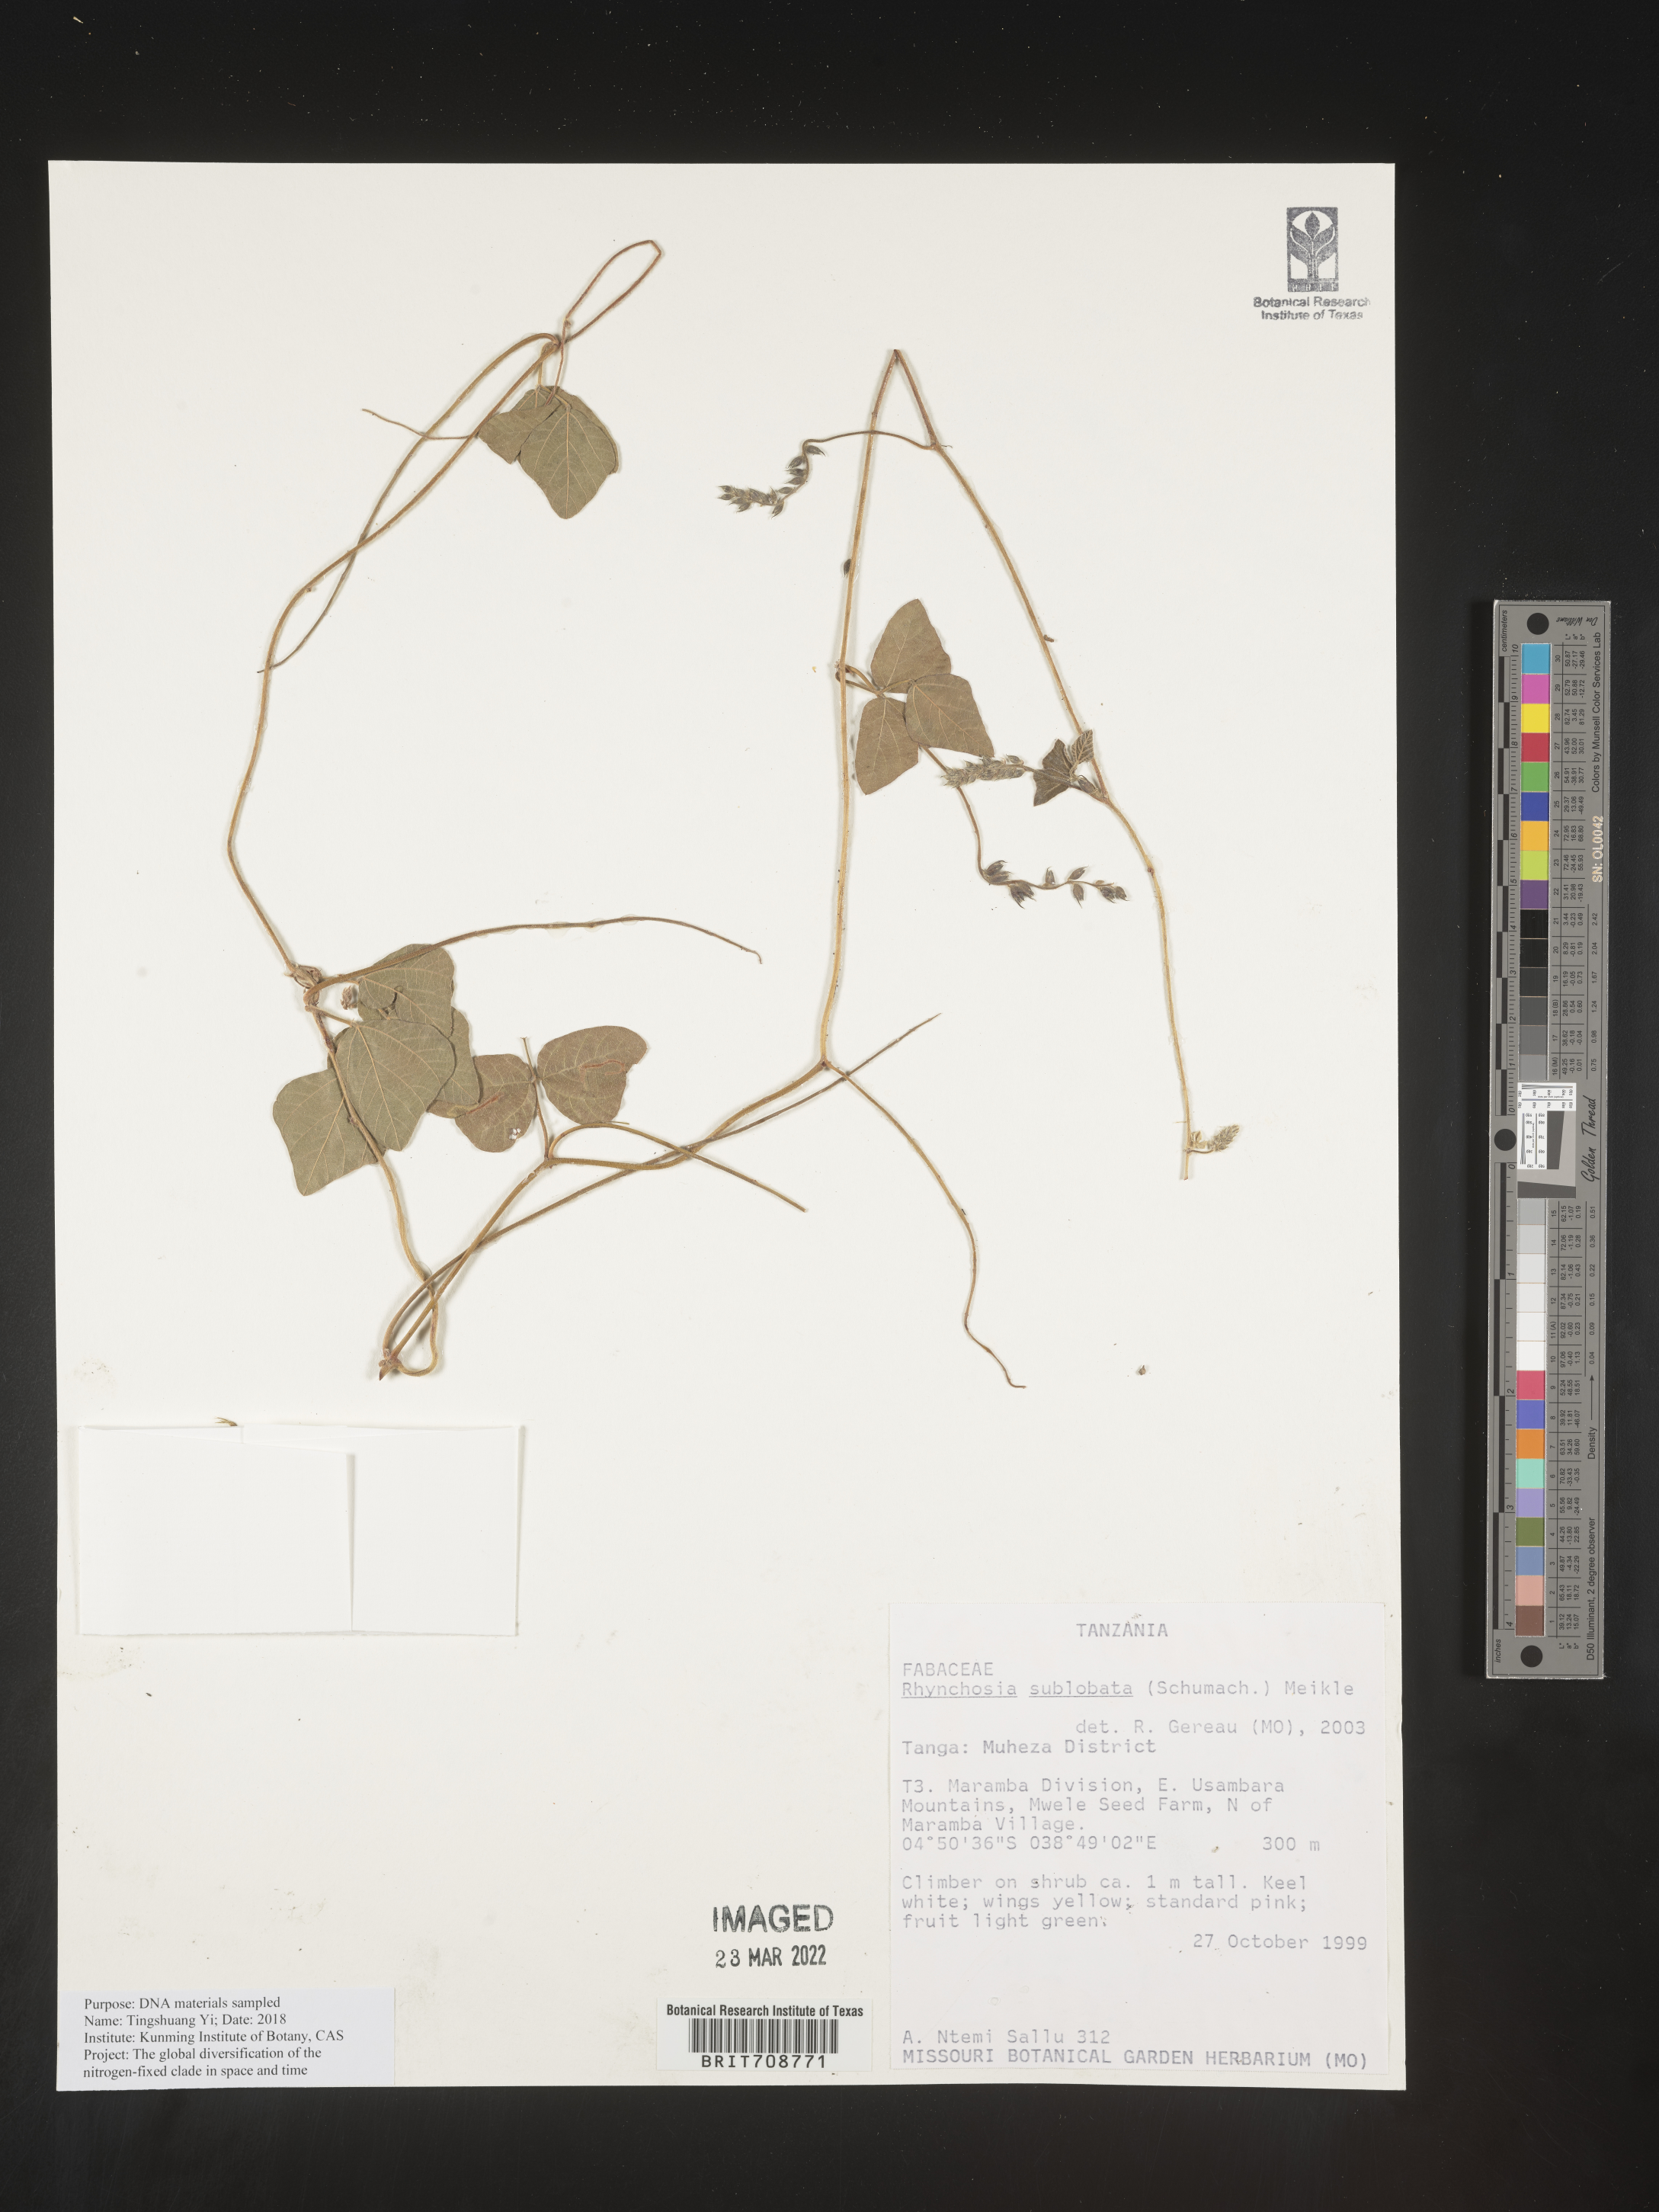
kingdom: Plantae
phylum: Tracheophyta
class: Magnoliopsida
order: Fabales
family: Fabaceae
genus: Rhynchosia
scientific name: Rhynchosia
